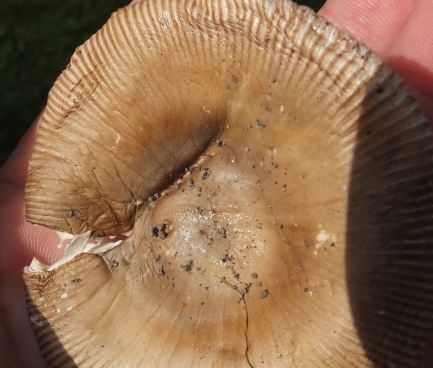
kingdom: Fungi
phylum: Basidiomycota
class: Agaricomycetes
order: Agaricales
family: Amanitaceae
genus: Amanita
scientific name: Amanita lividopallescens
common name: afblegende kam-fluesvamp
